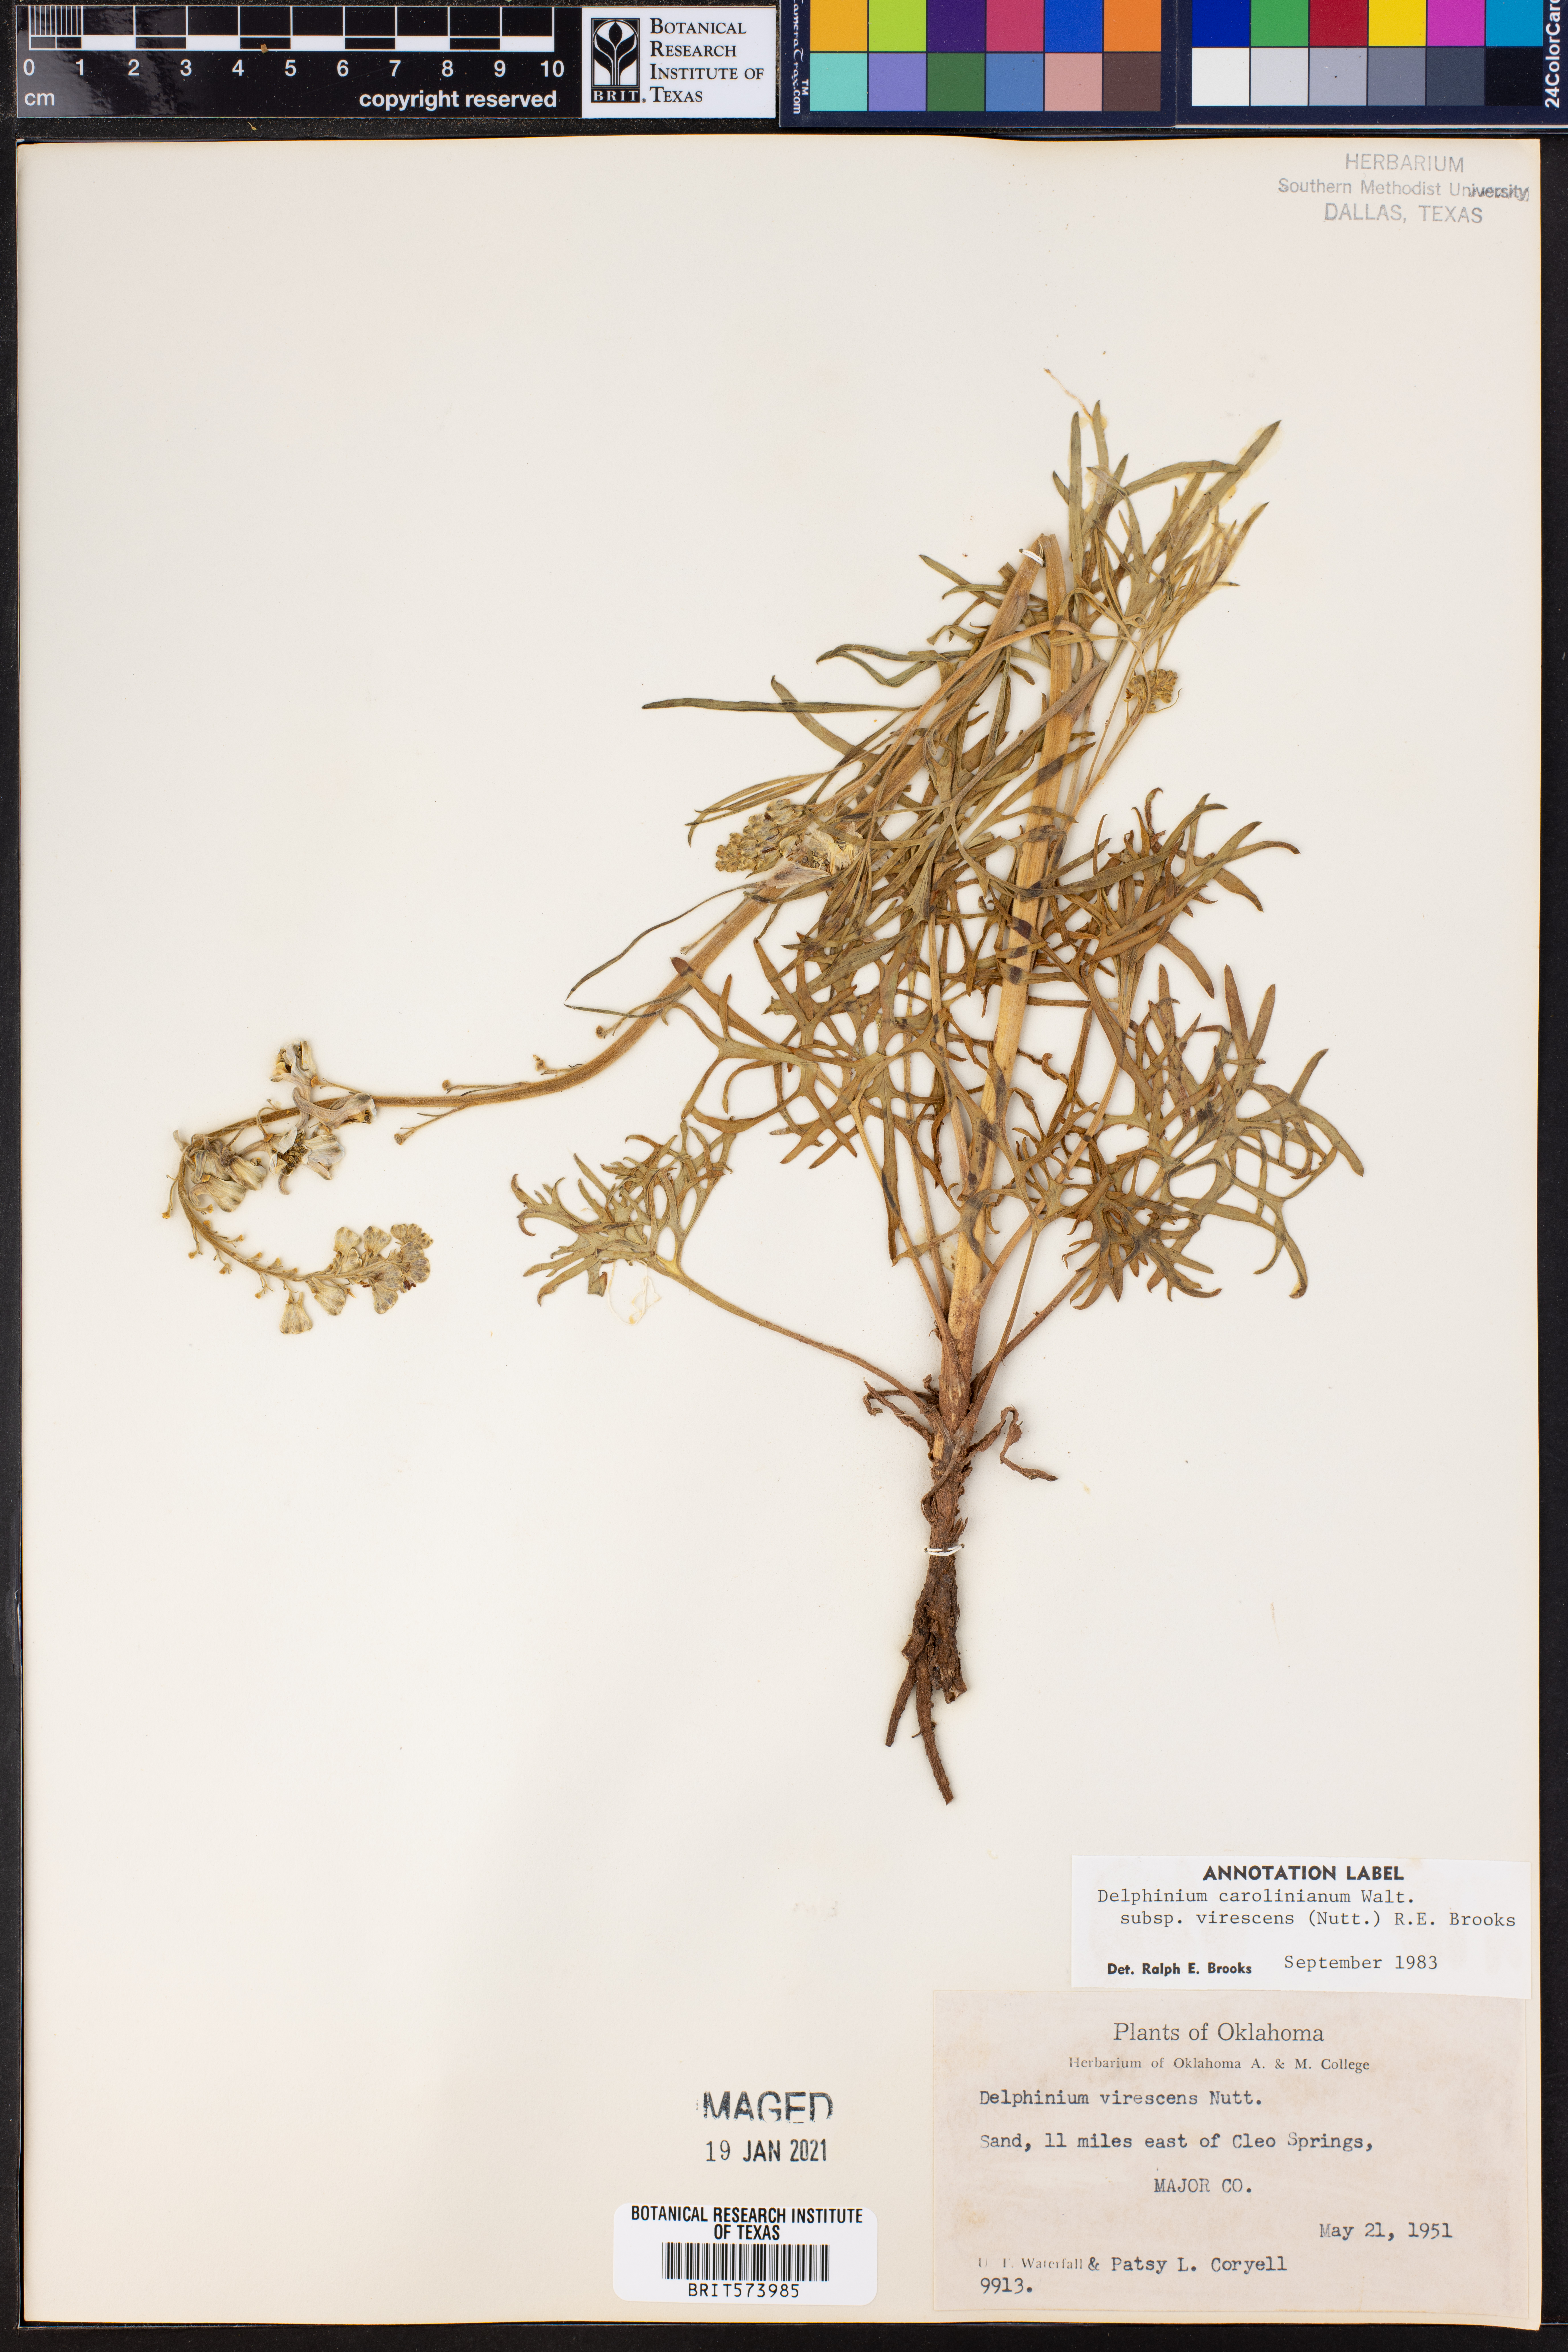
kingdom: Plantae
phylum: Tracheophyta
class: Magnoliopsida
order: Ranunculales
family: Ranunculaceae
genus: Delphinium
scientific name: Delphinium carolinianum
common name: Carolina larkspur
